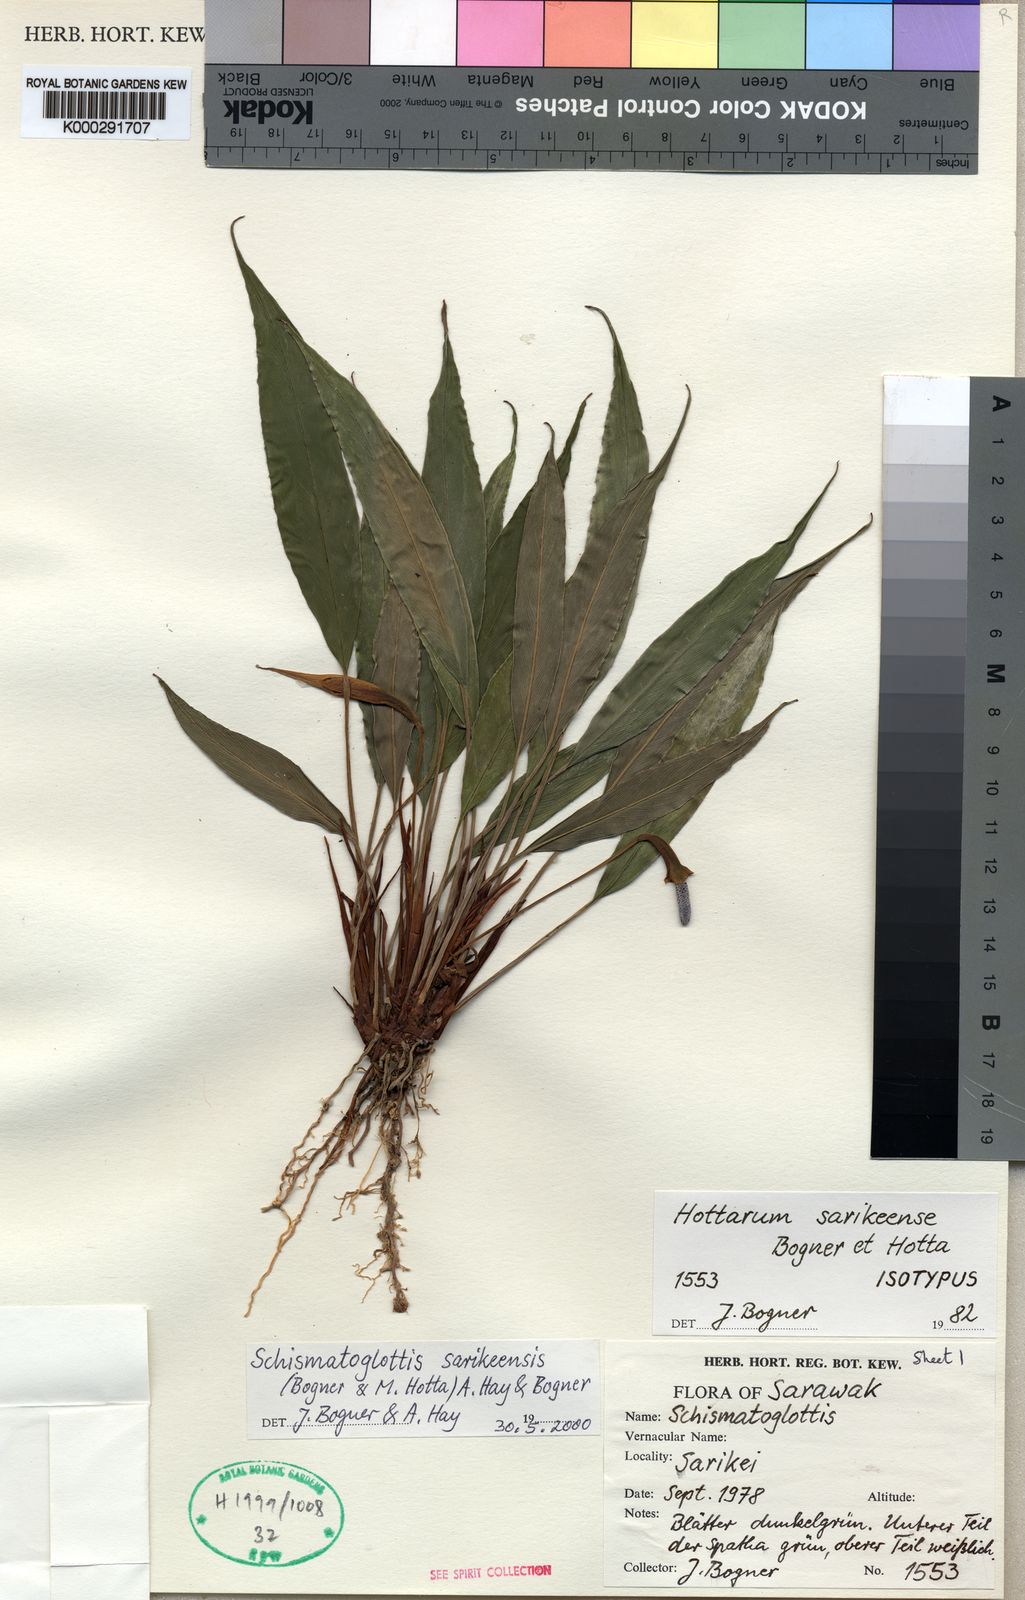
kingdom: Plantae
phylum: Tracheophyta
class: Liliopsida
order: Alismatales
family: Araceae
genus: Schismatoglottis
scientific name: Schismatoglottis
